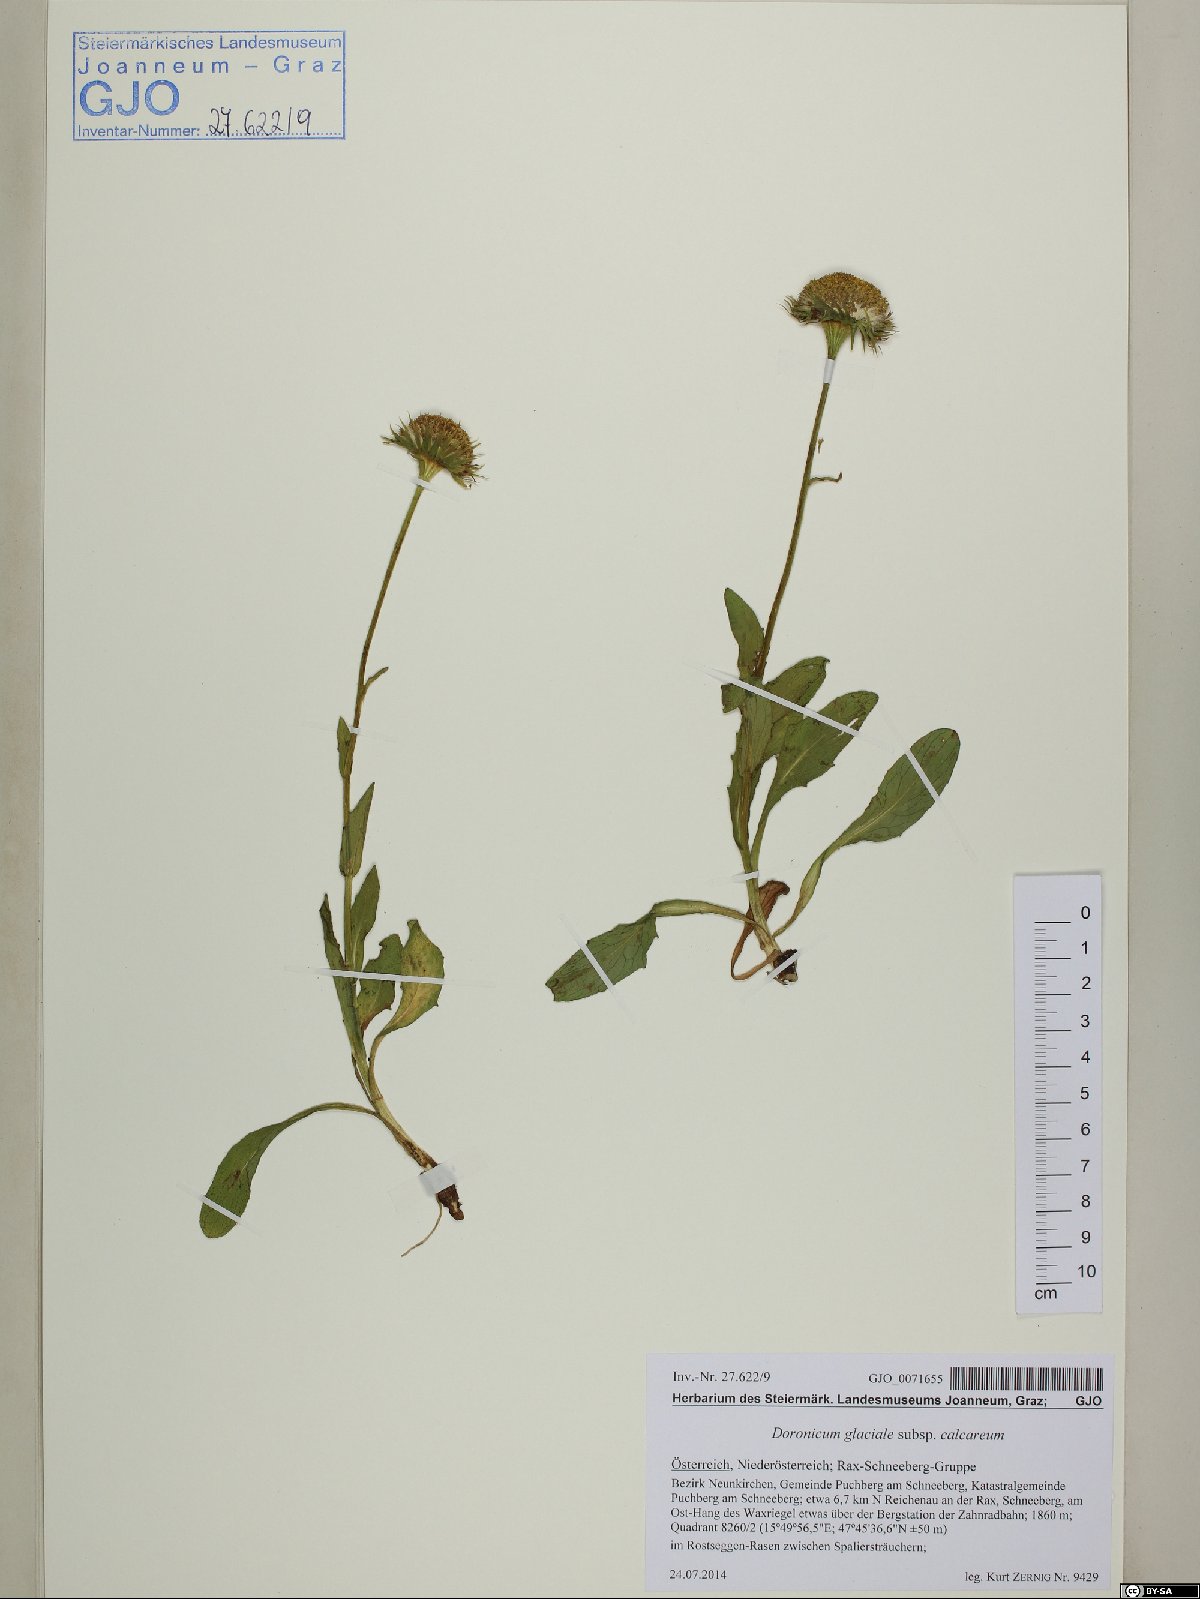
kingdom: Plantae
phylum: Tracheophyta
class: Magnoliopsida
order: Asterales
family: Asteraceae
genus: Doronicum
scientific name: Doronicum glaciale
